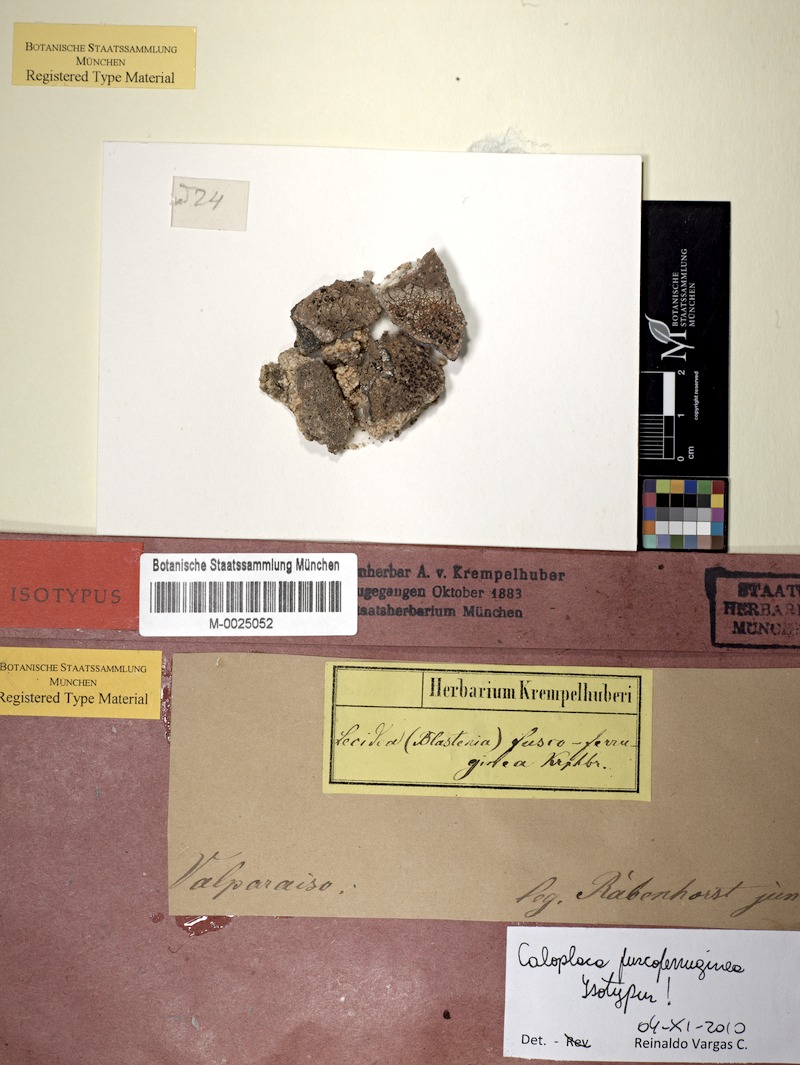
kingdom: Fungi
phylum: Ascomycota
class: Lecanoromycetes
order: Teloschistales
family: Teloschistaceae
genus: Caloplaca
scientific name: Caloplaca
